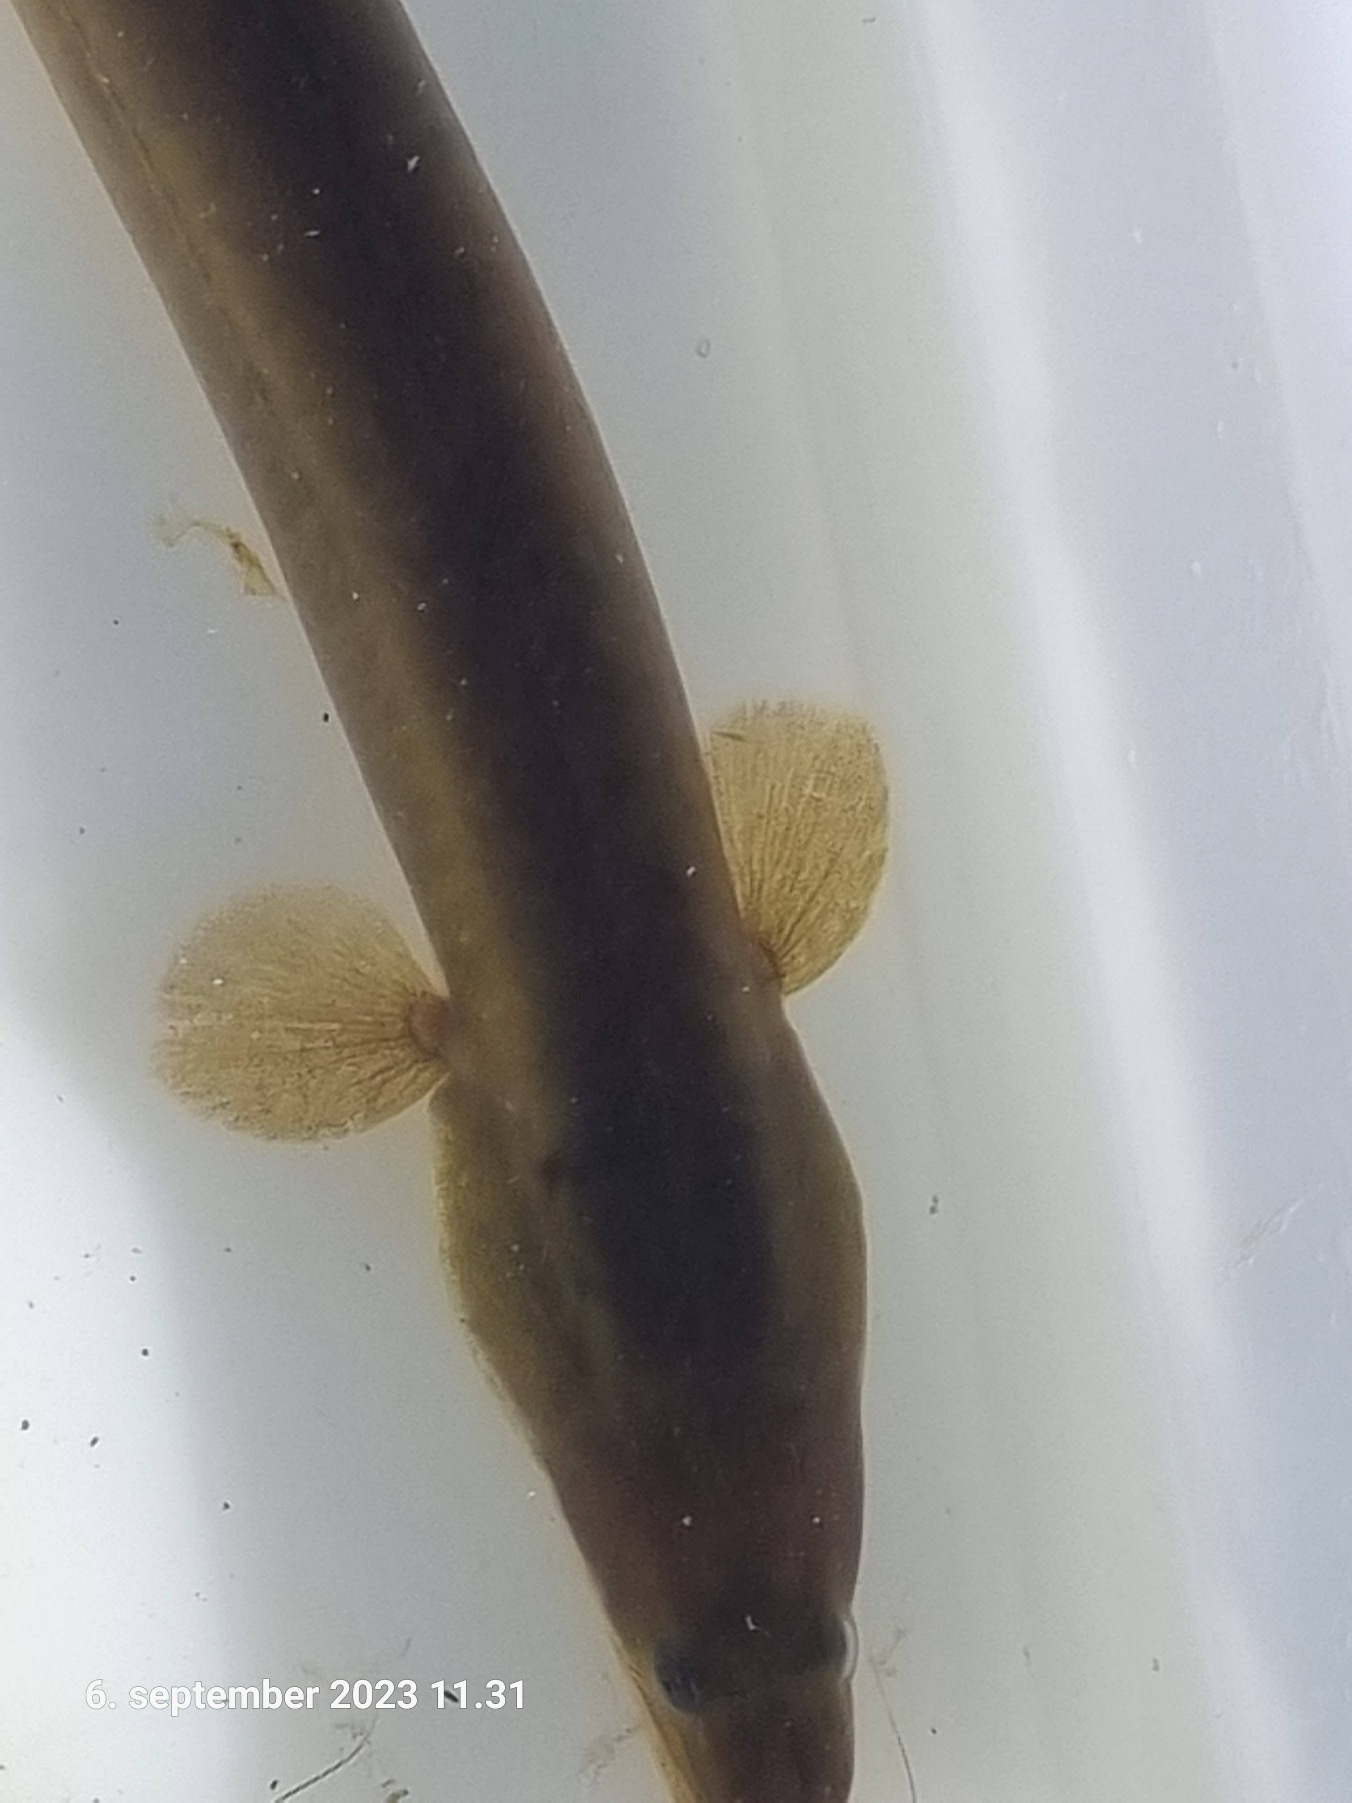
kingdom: Animalia
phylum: Chordata
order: Anguilliformes
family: Anguillidae
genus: Anguilla
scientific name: Anguilla anguilla
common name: Europæisk ål
